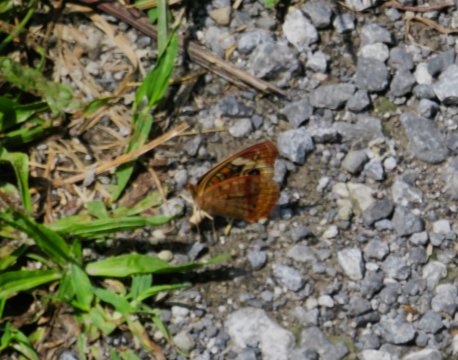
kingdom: Animalia
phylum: Arthropoda
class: Insecta
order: Lepidoptera
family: Nymphalidae
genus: Junonia
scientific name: Junonia coenia
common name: Common Buckeye
